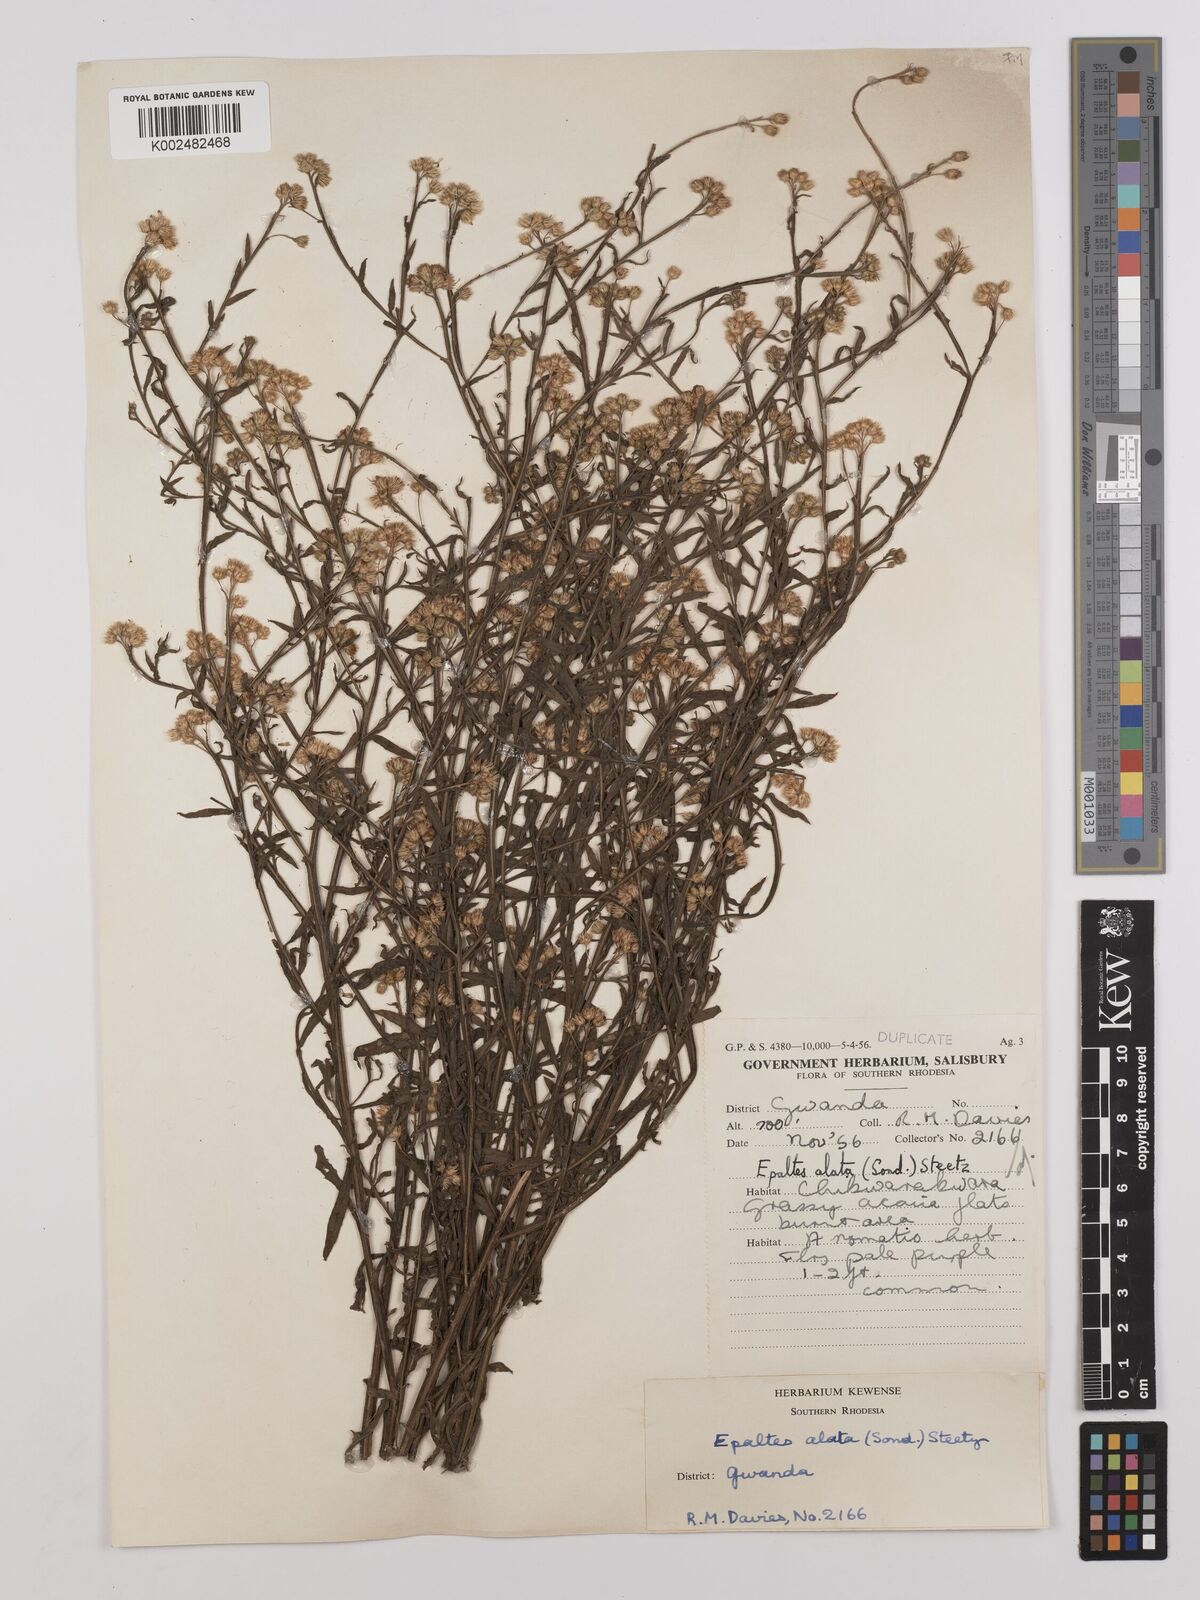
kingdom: Plantae
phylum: Tracheophyta
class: Magnoliopsida
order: Asterales
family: Asteraceae
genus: Litogyne
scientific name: Litogyne gariepina
